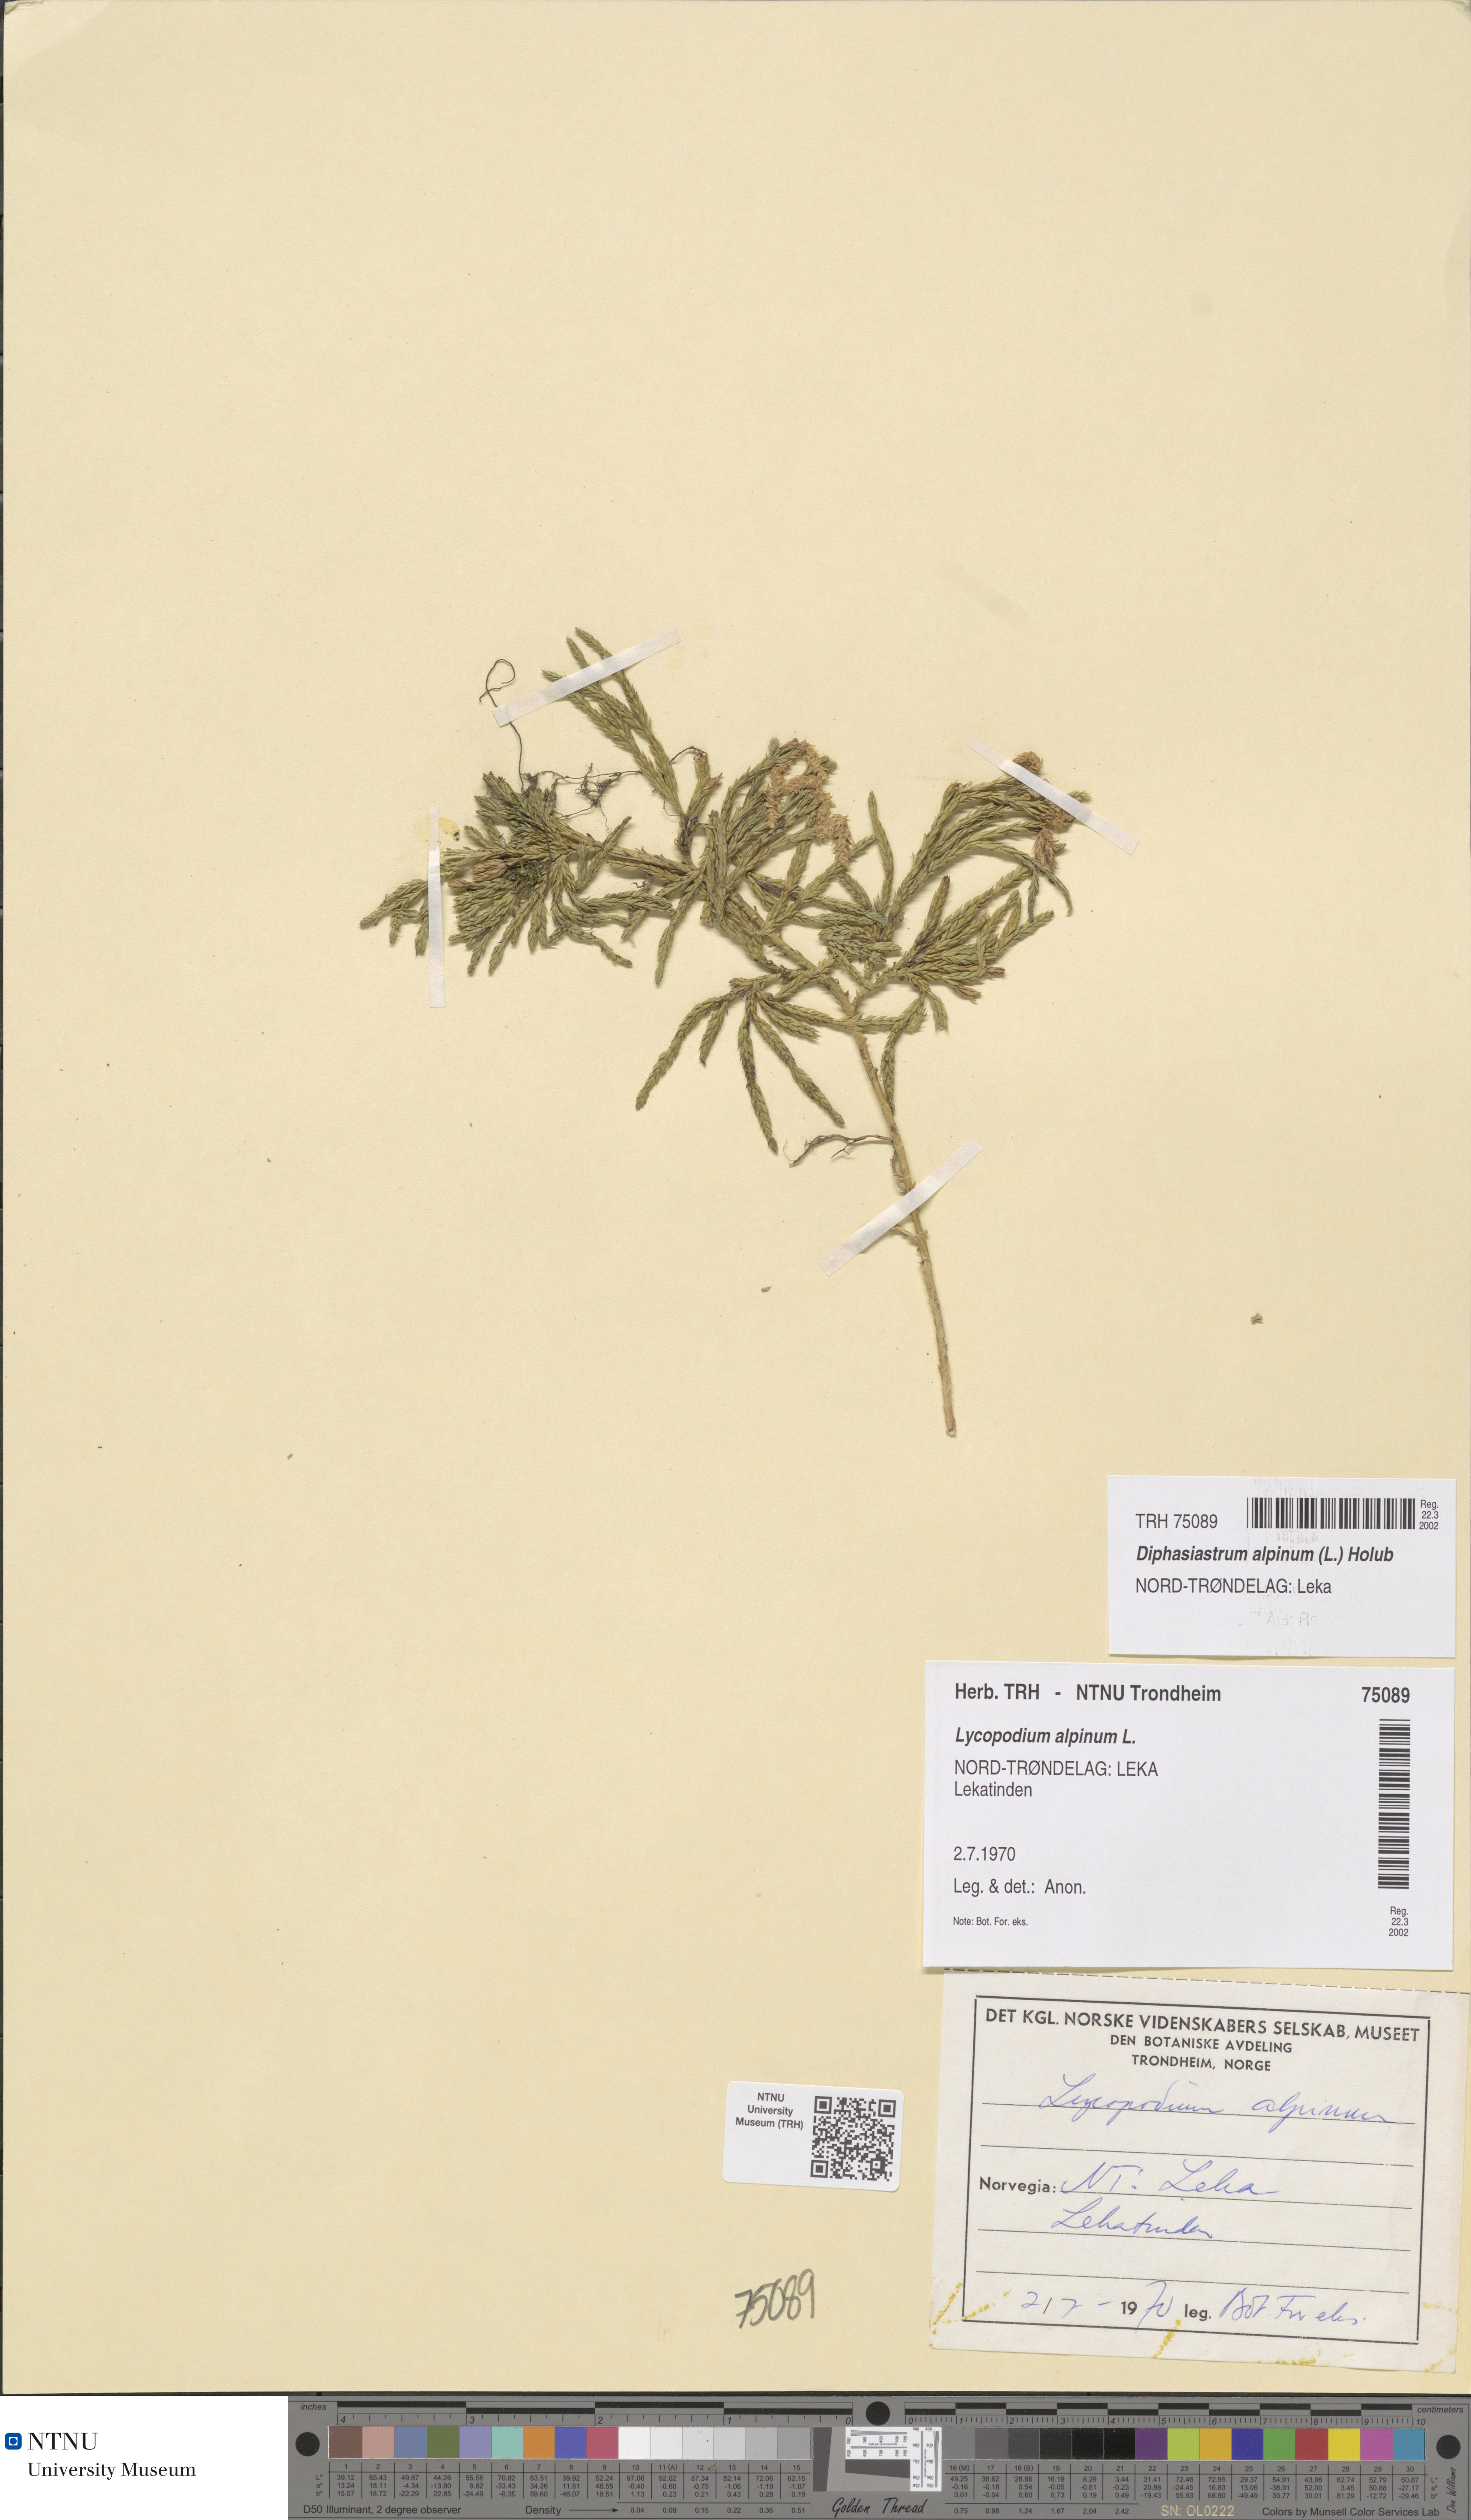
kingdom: Plantae
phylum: Tracheophyta
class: Lycopodiopsida
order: Lycopodiales
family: Lycopodiaceae
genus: Diphasiastrum
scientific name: Diphasiastrum alpinum
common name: Alpine clubmoss
